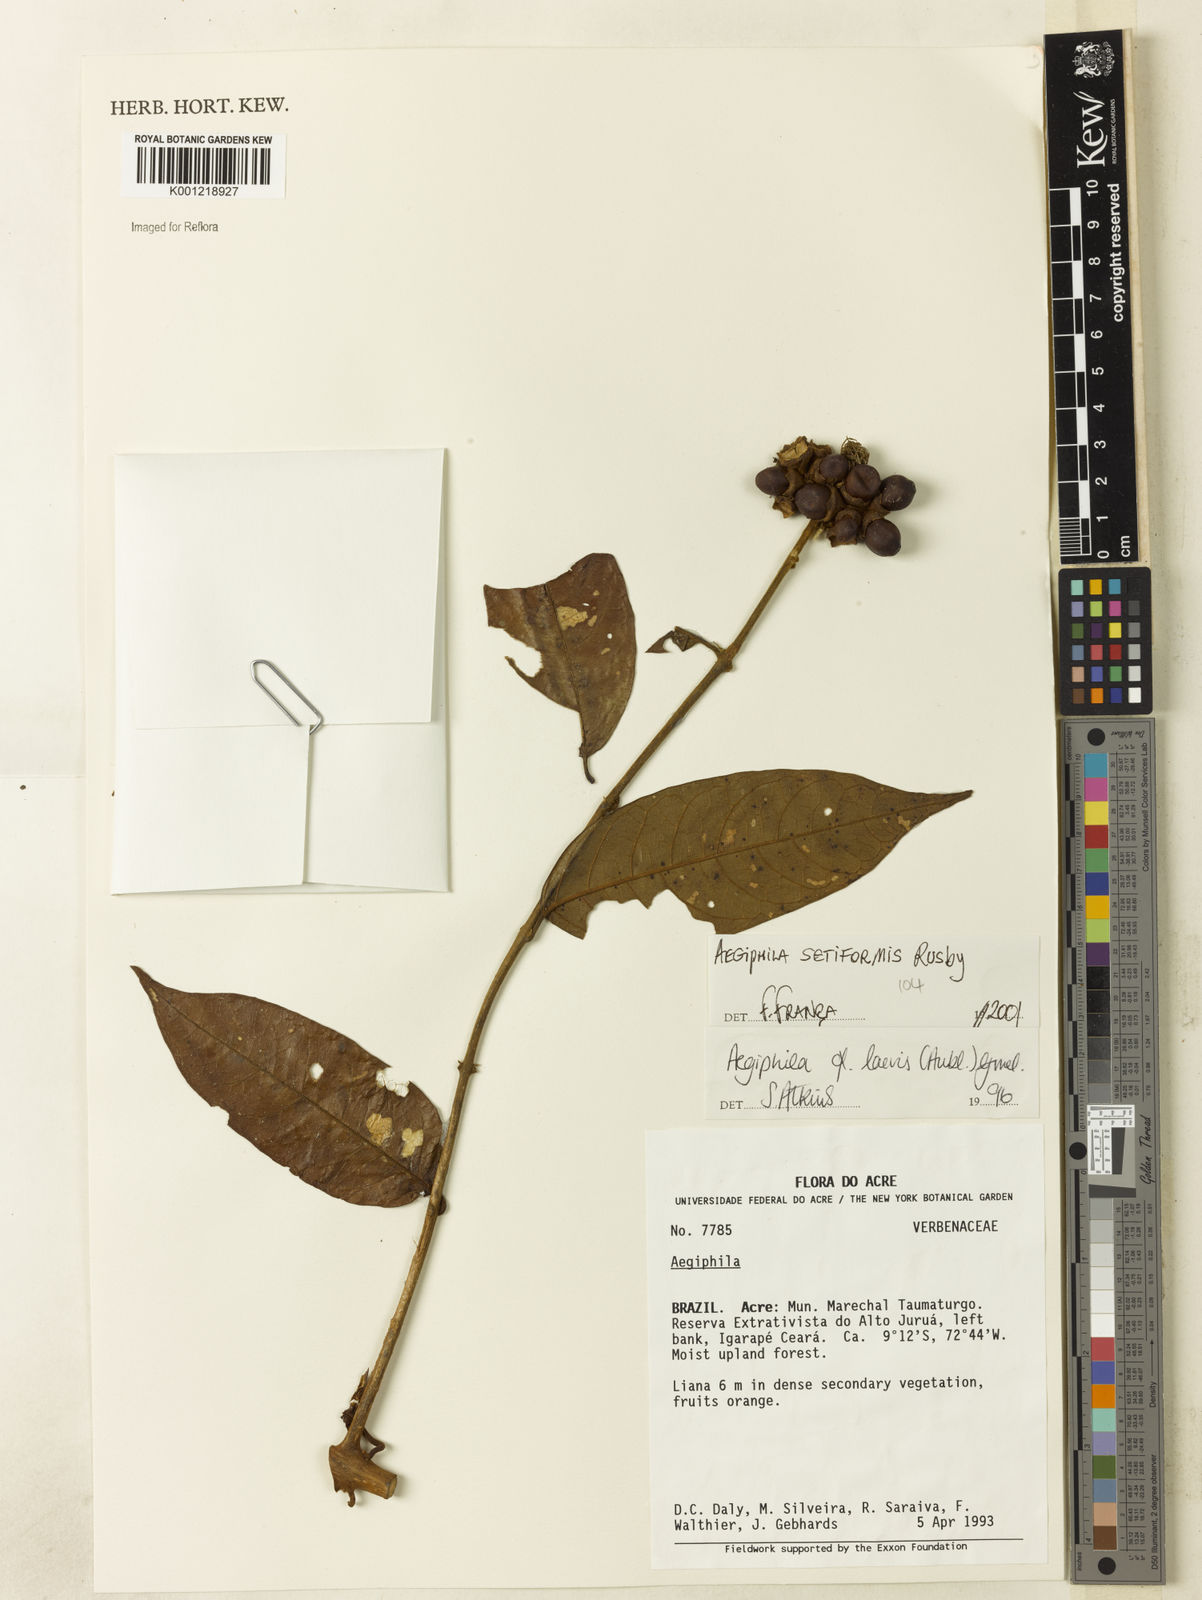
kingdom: Plantae
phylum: Tracheophyta
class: Magnoliopsida
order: Lamiales
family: Lamiaceae
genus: Aegiphila
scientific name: Aegiphila vitelliniflora
